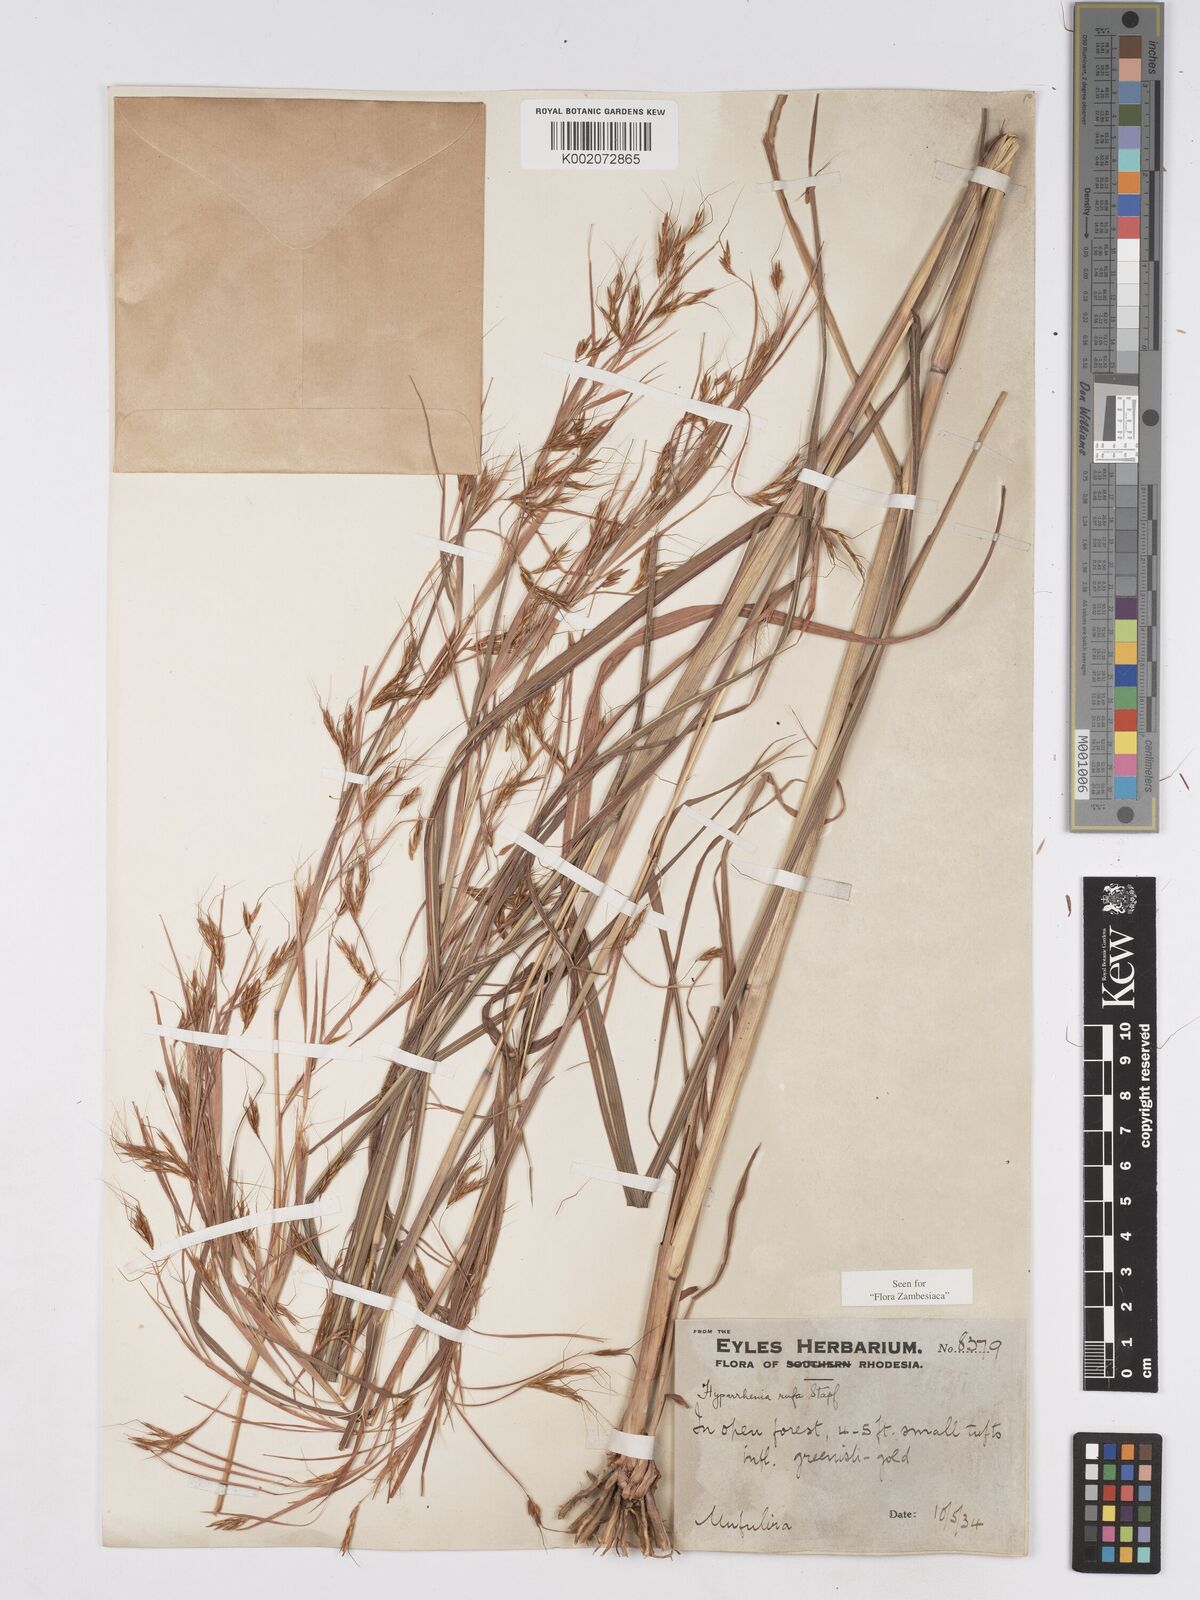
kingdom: Plantae
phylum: Tracheophyta
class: Liliopsida
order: Poales
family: Poaceae
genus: Hyparrhenia
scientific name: Hyparrhenia rufa
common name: Jaraguagrass
